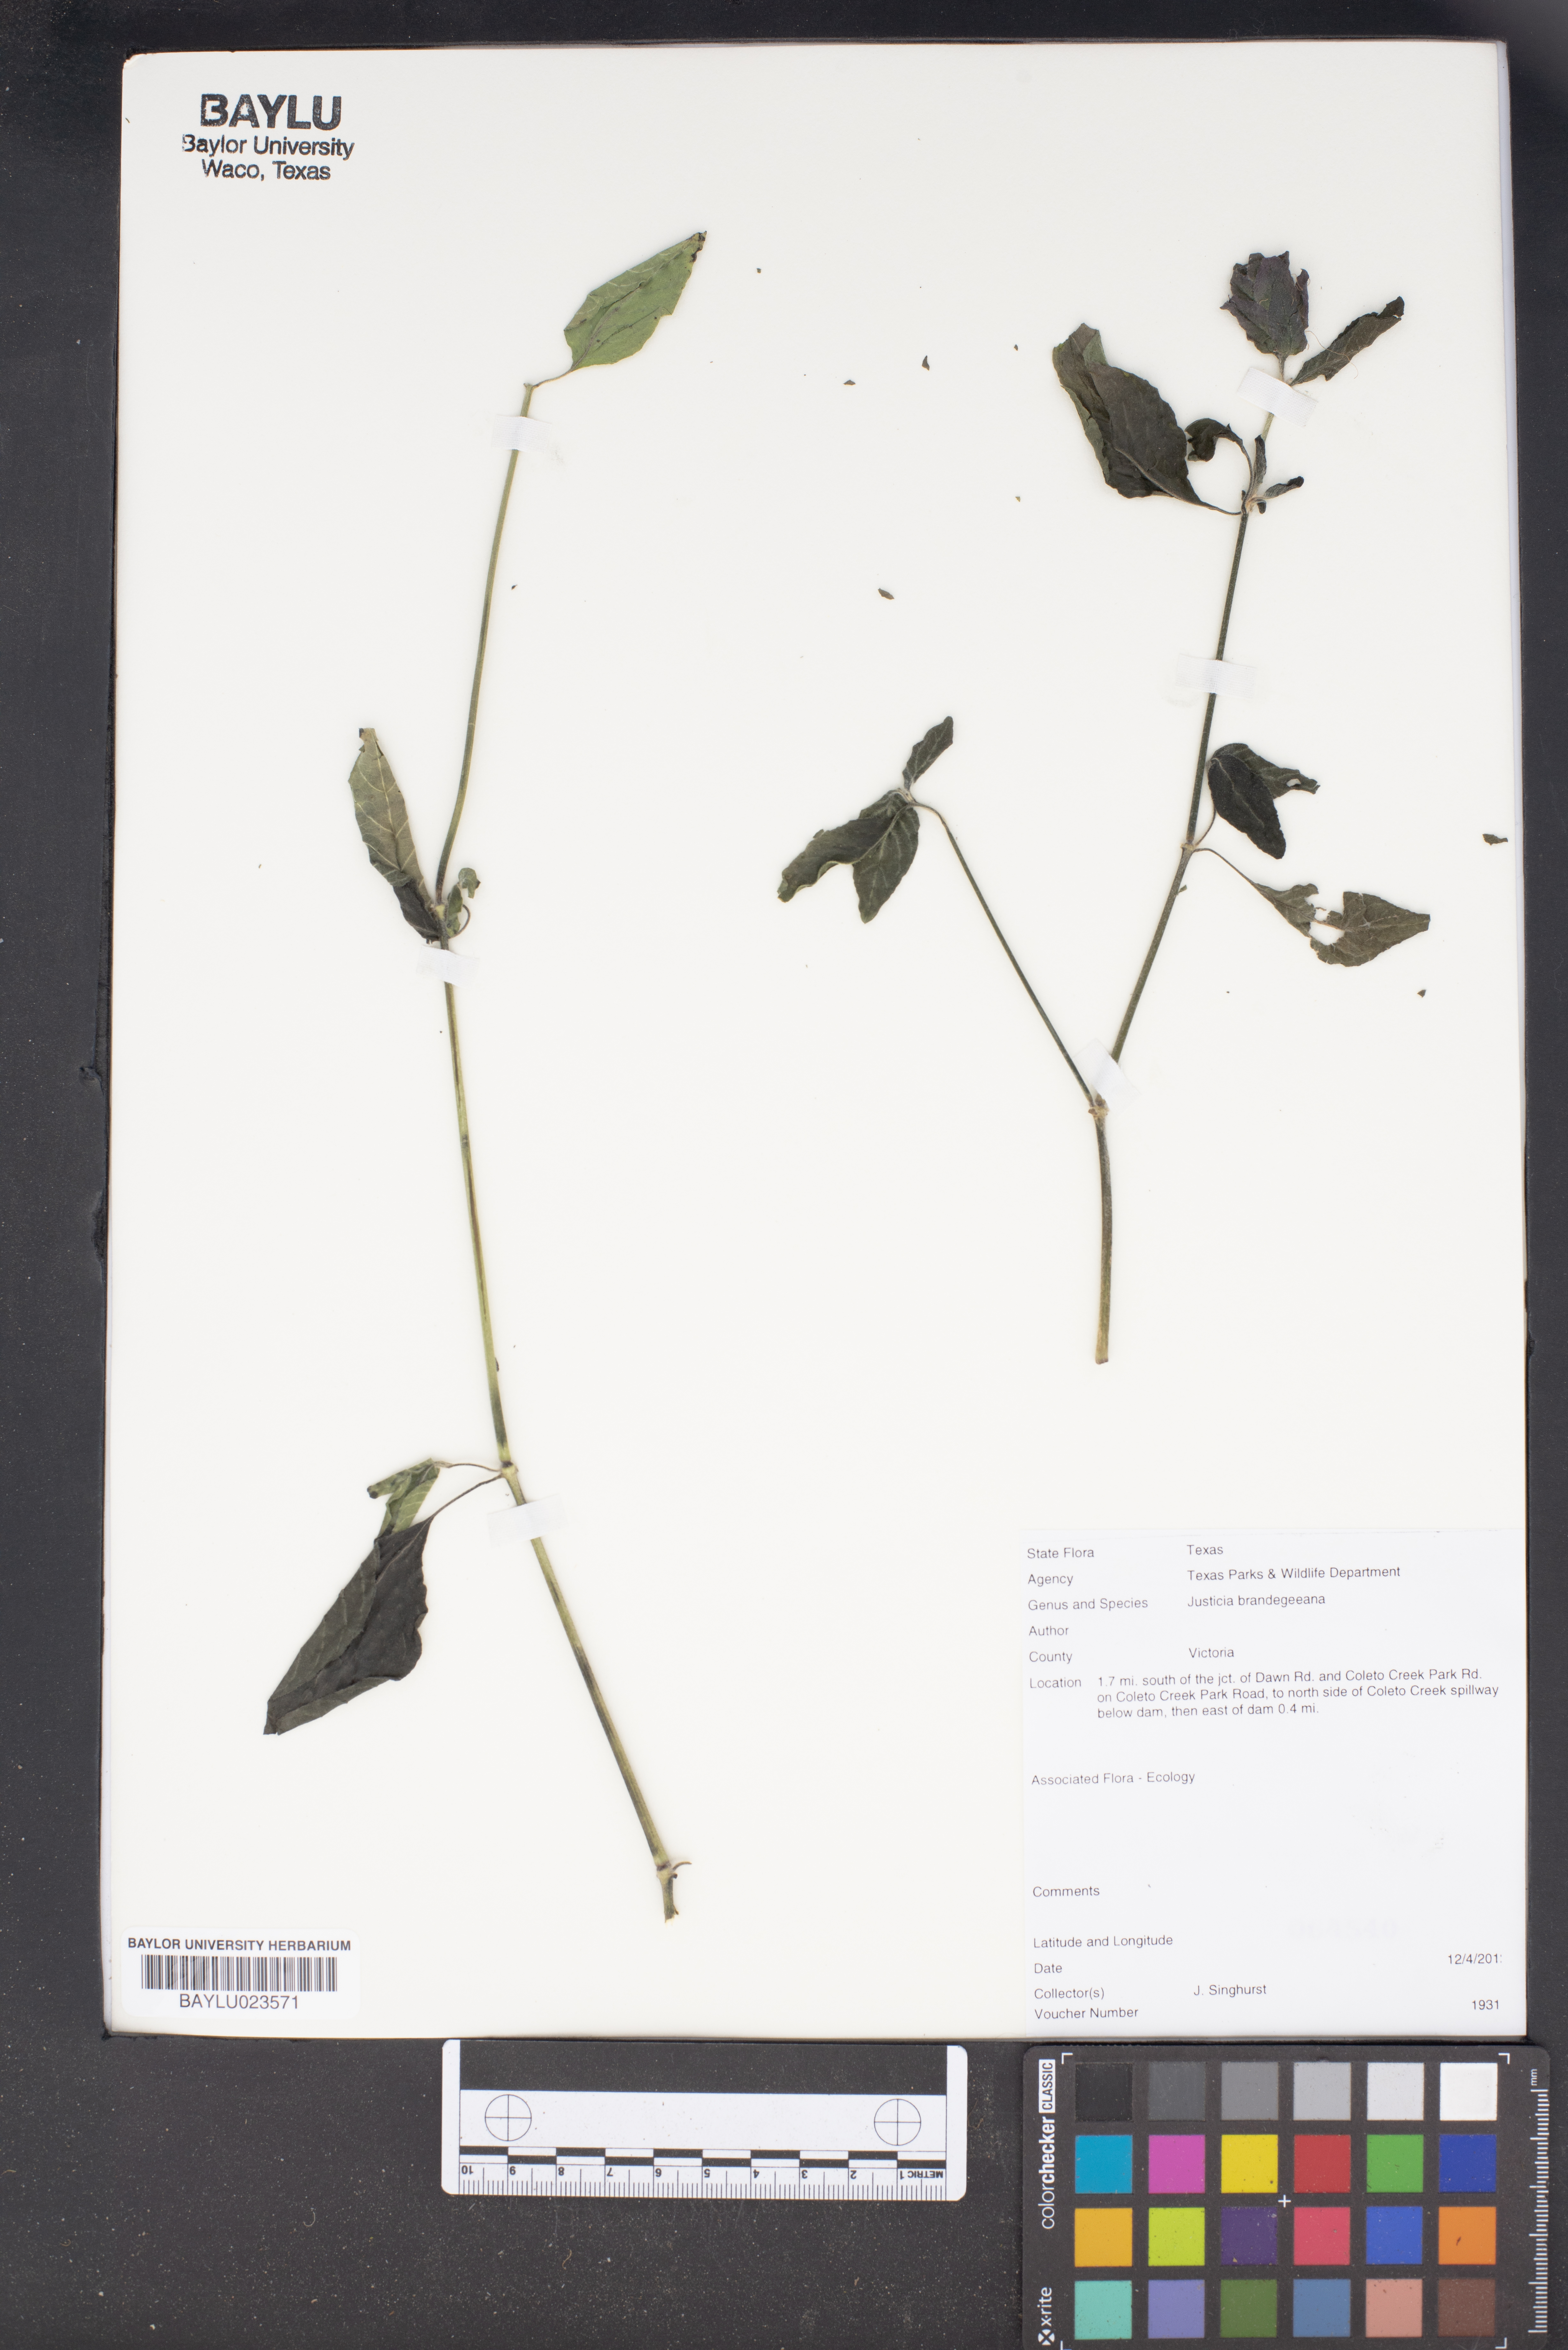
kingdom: Plantae
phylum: Tracheophyta
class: Magnoliopsida
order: Lamiales
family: Acanthaceae
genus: Justicia
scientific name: Justicia brandegeeana
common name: Shrimpplant
